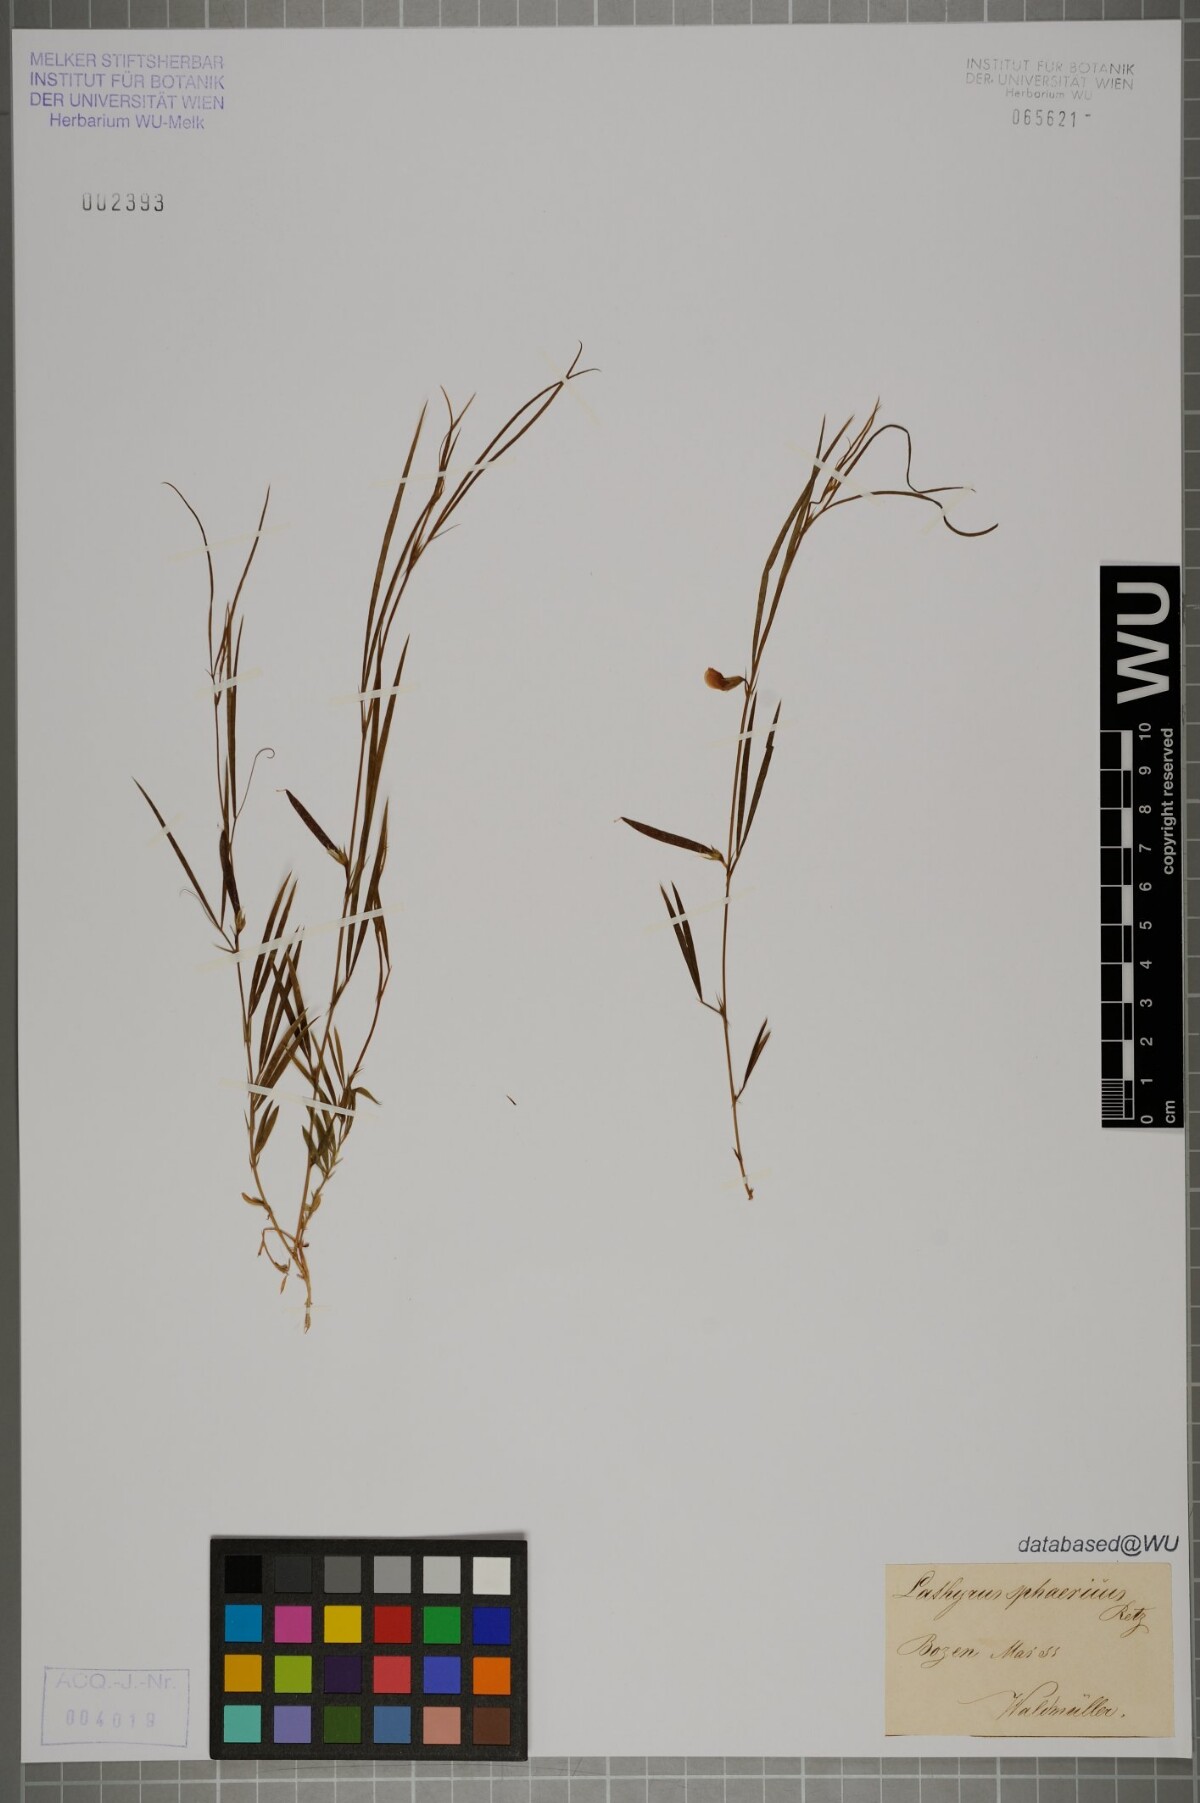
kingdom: Plantae
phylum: Tracheophyta
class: Magnoliopsida
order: Fabales
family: Fabaceae
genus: Lathyrus
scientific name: Lathyrus sphaericus
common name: Grass pea
